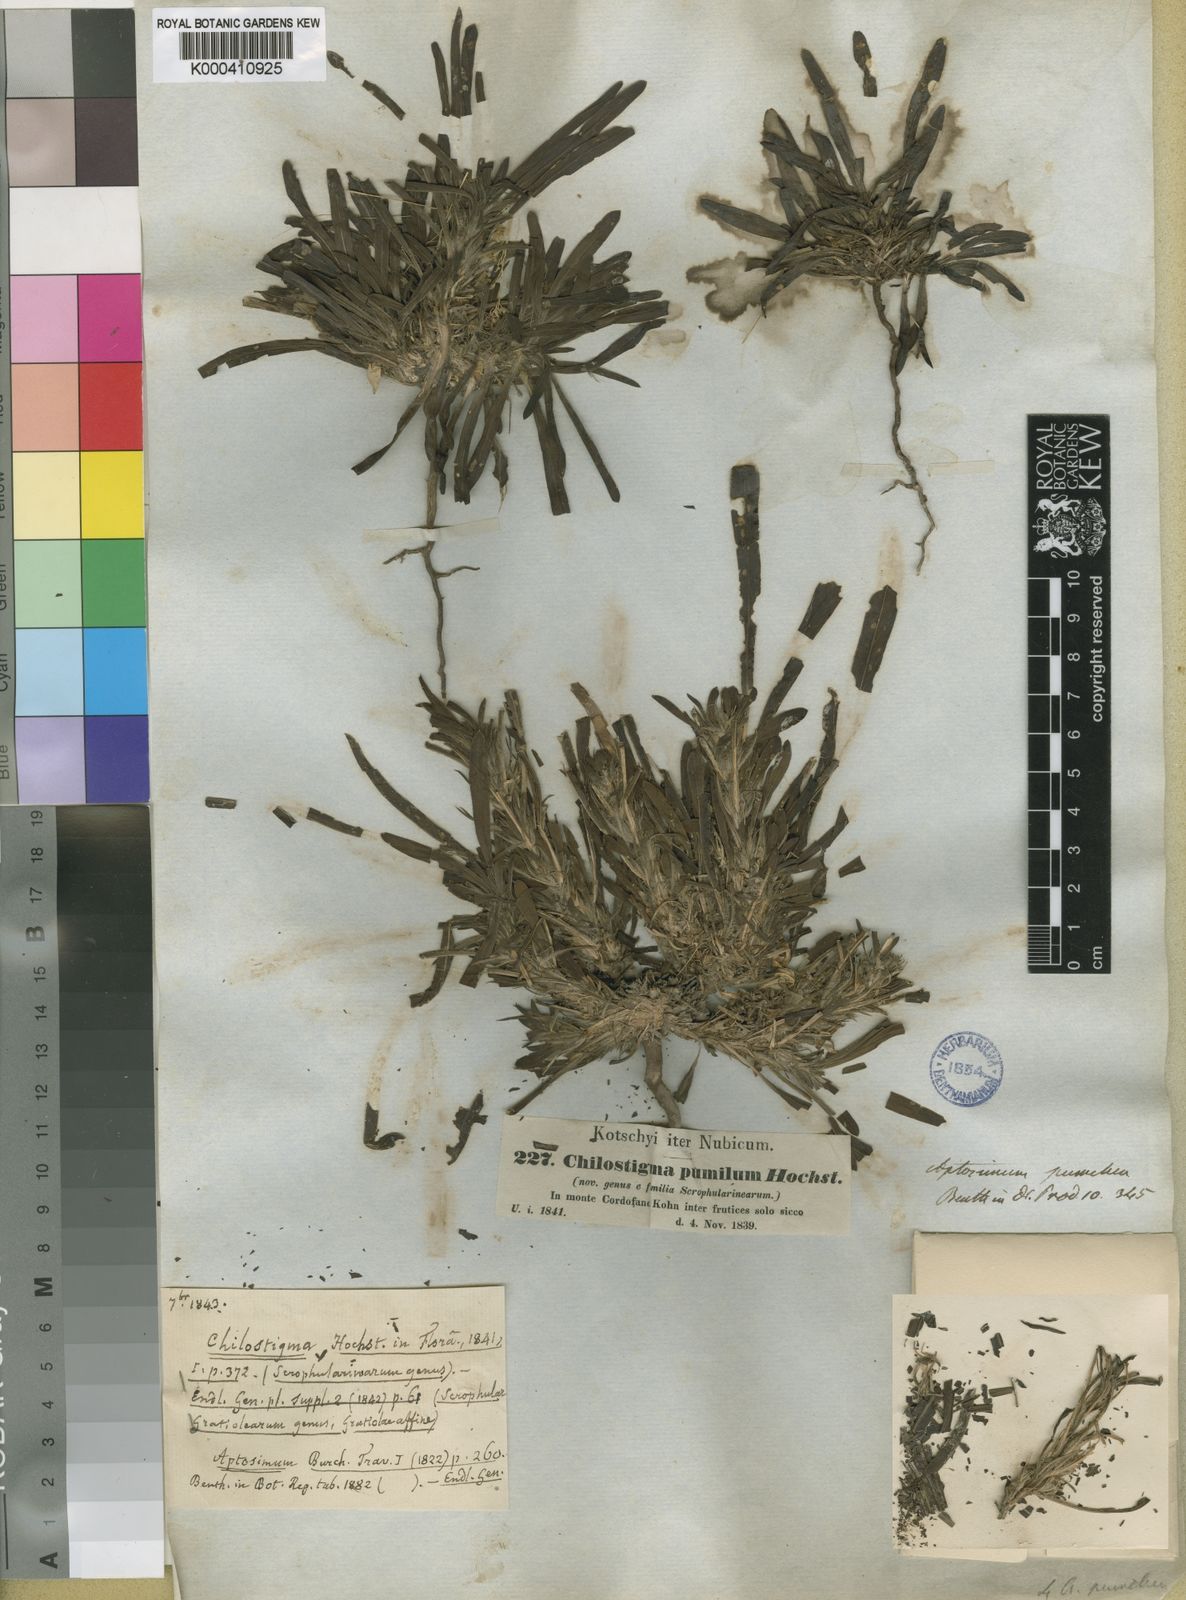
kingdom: Plantae
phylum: Tracheophyta
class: Magnoliopsida
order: Lamiales
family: Scrophulariaceae
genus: Aptosimum
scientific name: Aptosimum pumilum
